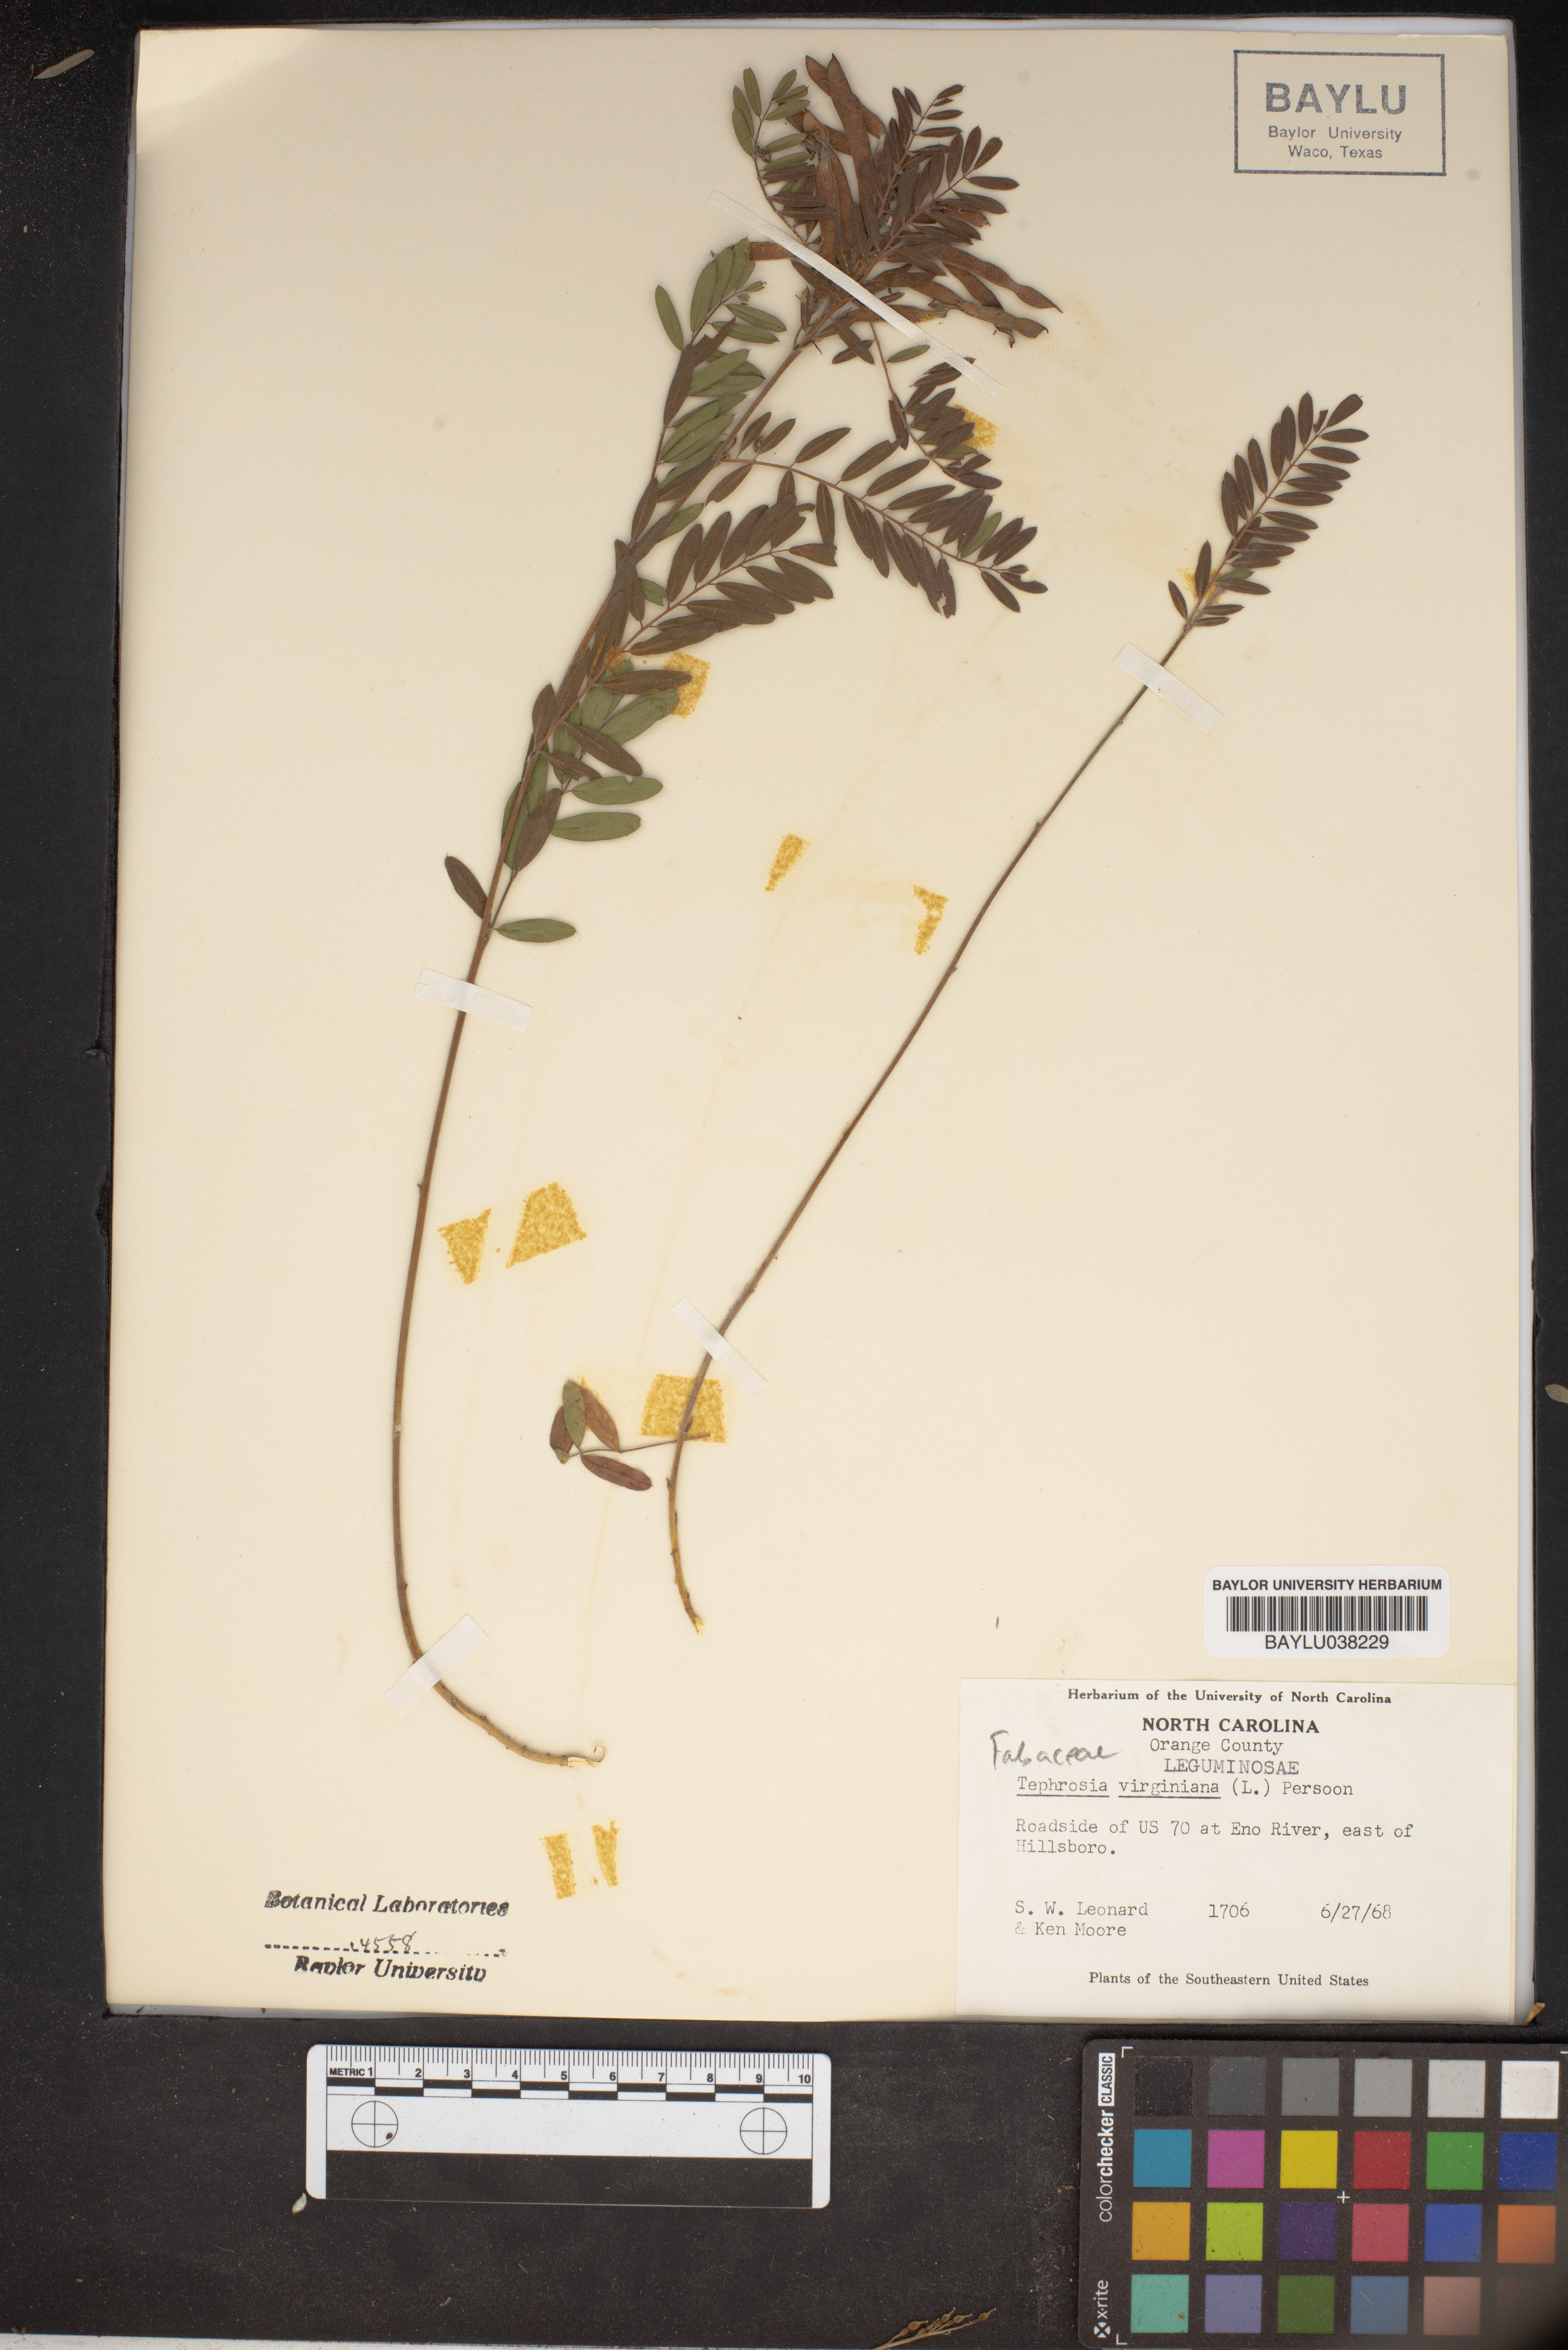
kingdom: Plantae
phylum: Tracheophyta
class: Magnoliopsida
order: Fabales
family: Fabaceae
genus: Tephrosia
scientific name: Tephrosia virginiana
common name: Rabbit-pea
